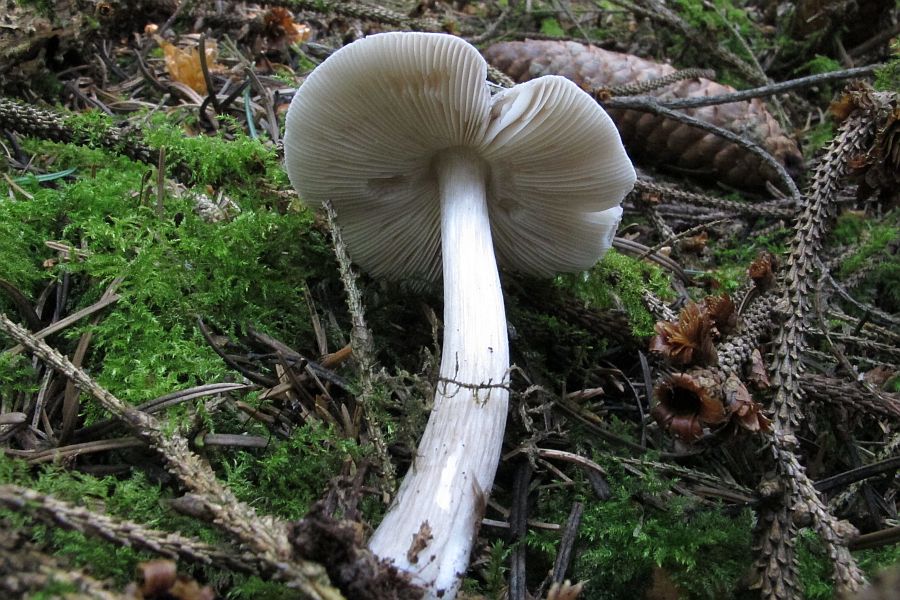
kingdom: Fungi
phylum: Basidiomycota
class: Agaricomycetes
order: Agaricales
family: Pluteaceae
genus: Pluteus
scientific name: Pluteus primus
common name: tidlig skærmhat
